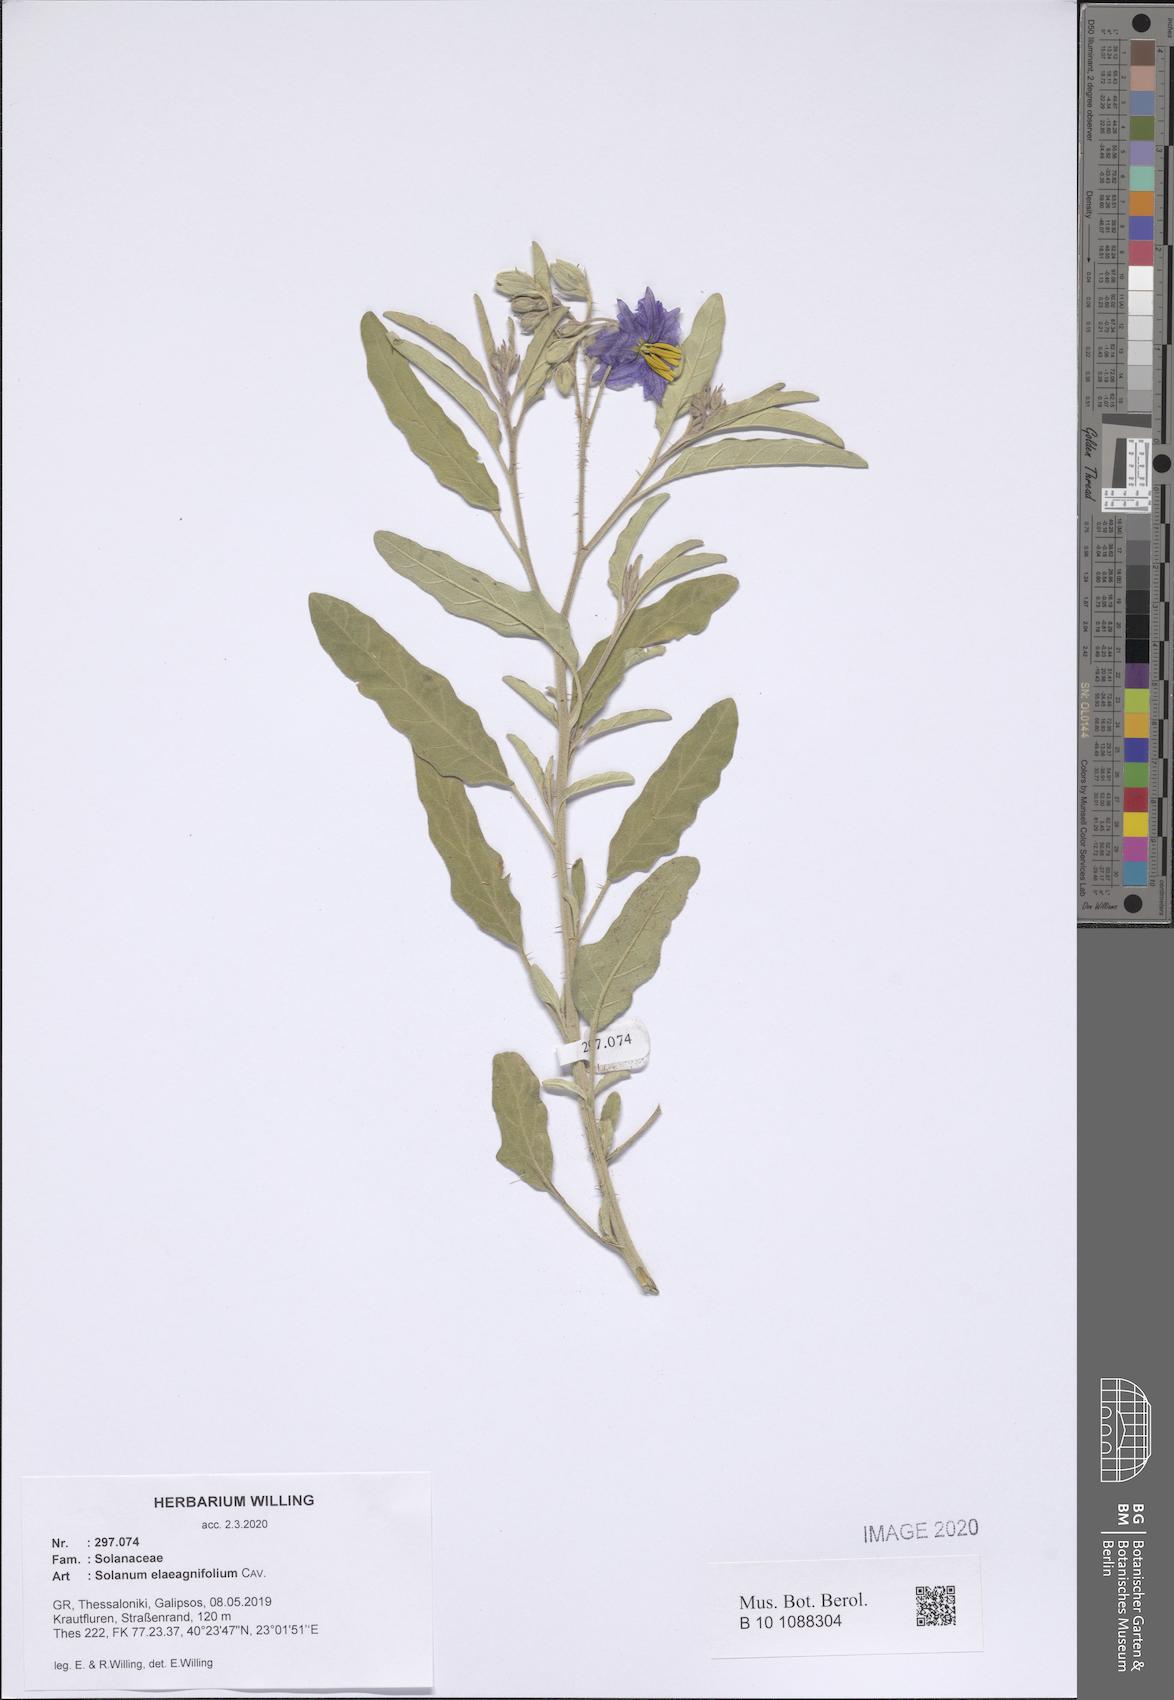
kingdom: Plantae
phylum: Tracheophyta
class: Magnoliopsida
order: Solanales
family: Solanaceae
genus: Solanum
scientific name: Solanum elaeagnifolium
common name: Silverleaf nightshade
